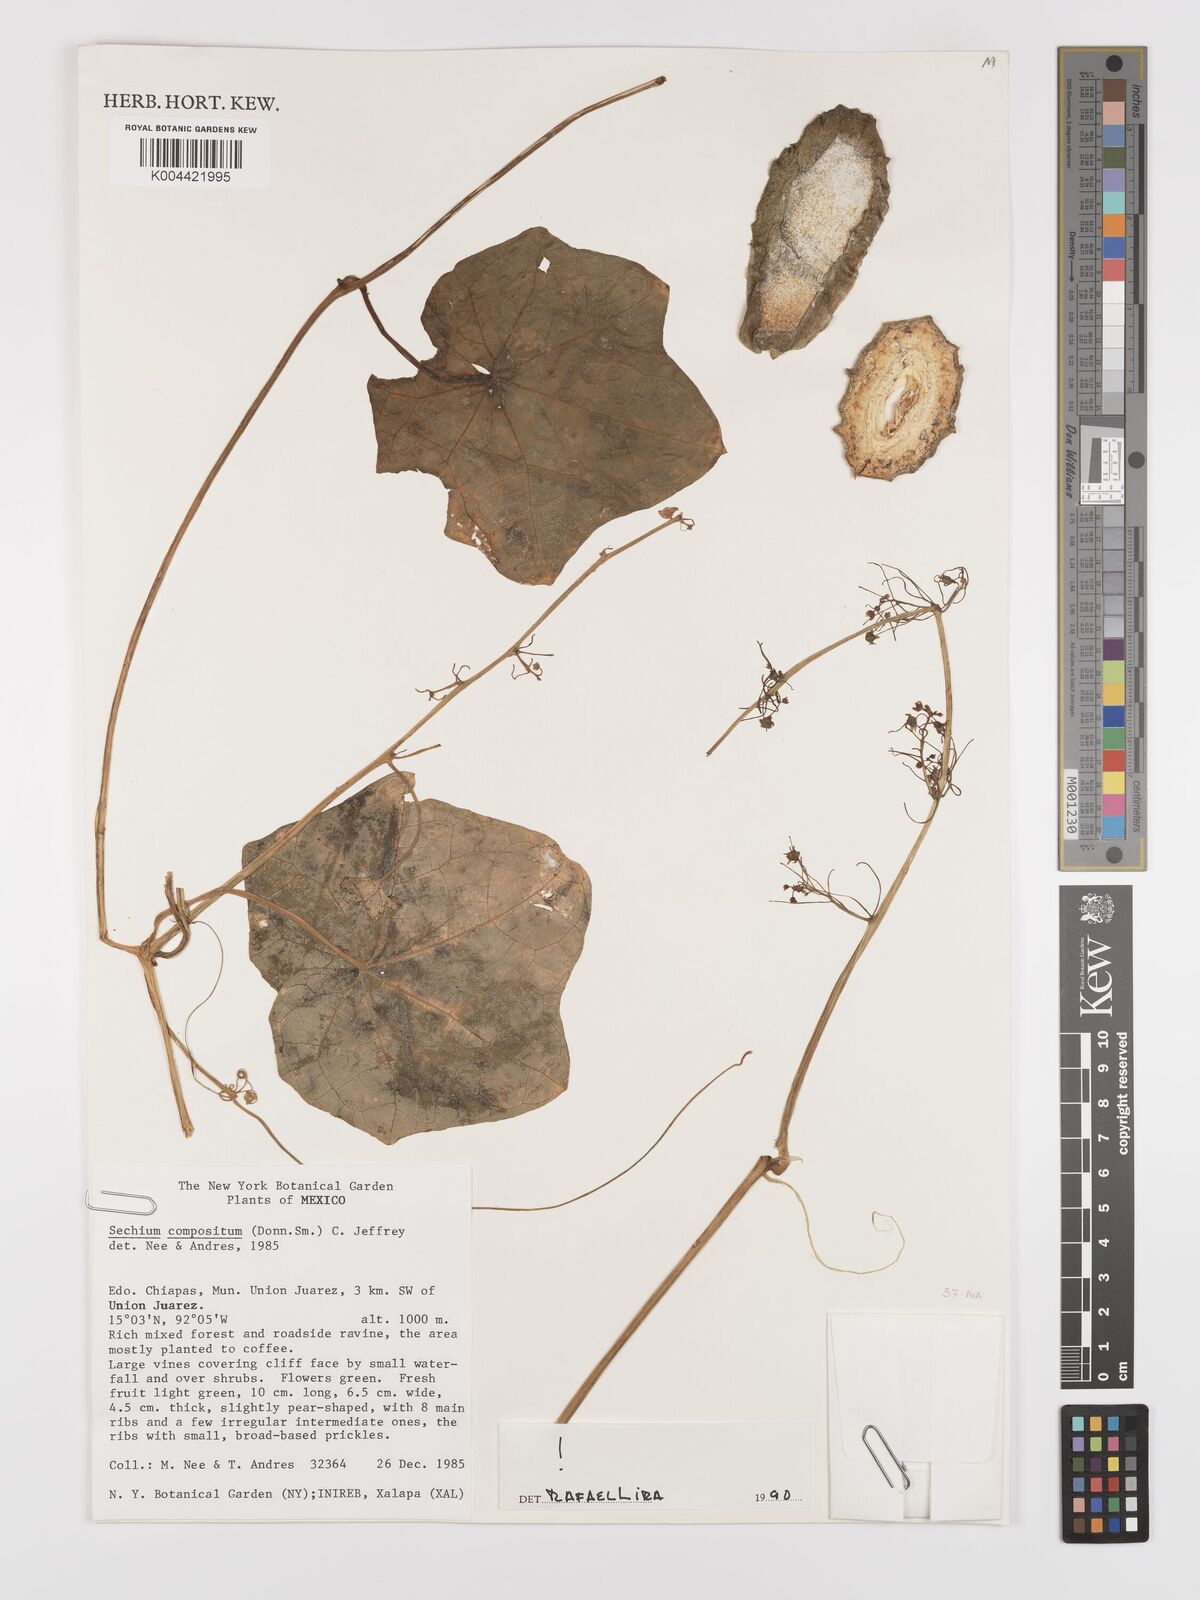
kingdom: Plantae
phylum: Tracheophyta
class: Magnoliopsida
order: Cucurbitales
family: Cucurbitaceae
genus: Sechium
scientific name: Sechium compositum
